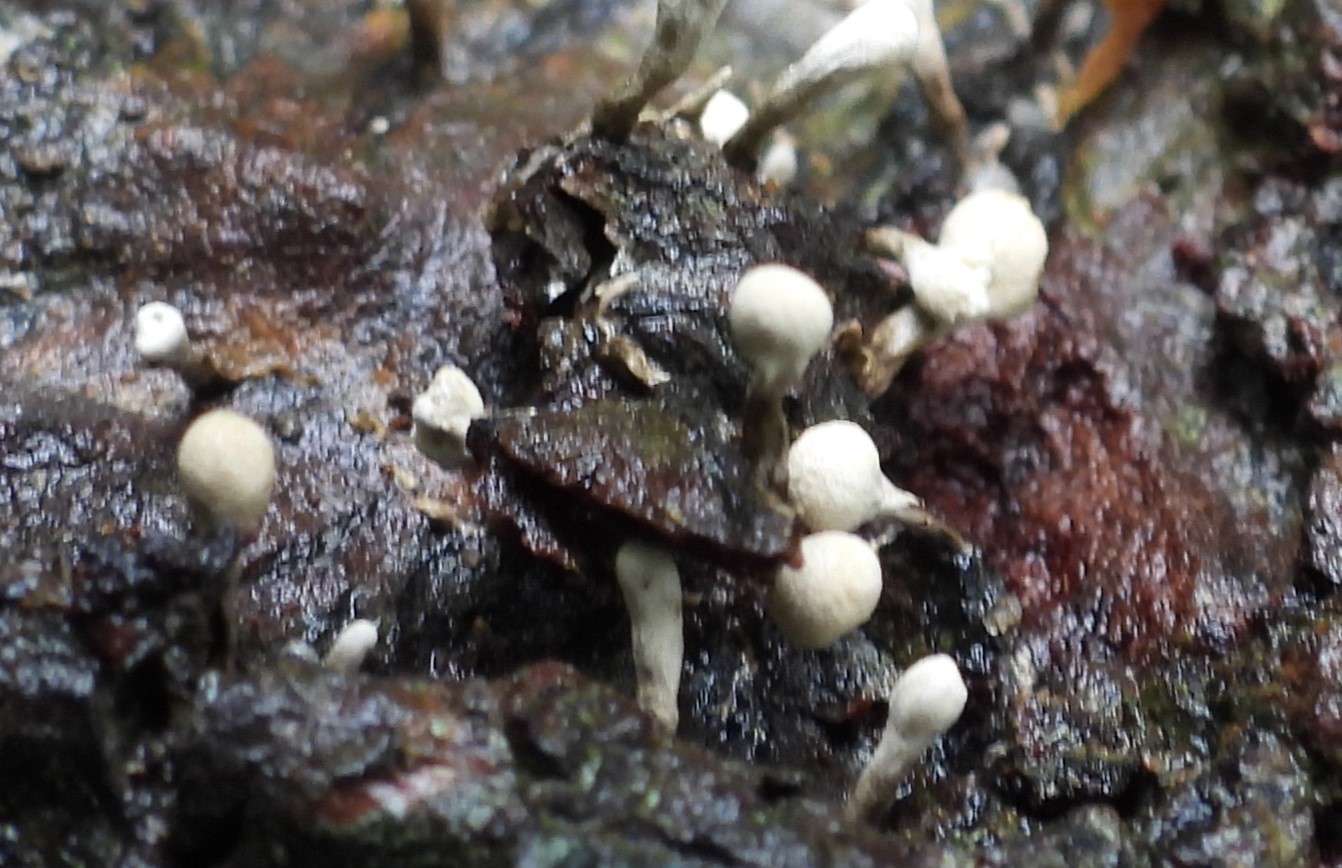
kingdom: Fungi
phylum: Basidiomycota
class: Atractiellomycetes
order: Atractiellales
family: Phleogenaceae
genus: Phleogena
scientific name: Phleogena faginea
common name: pudderkølle
